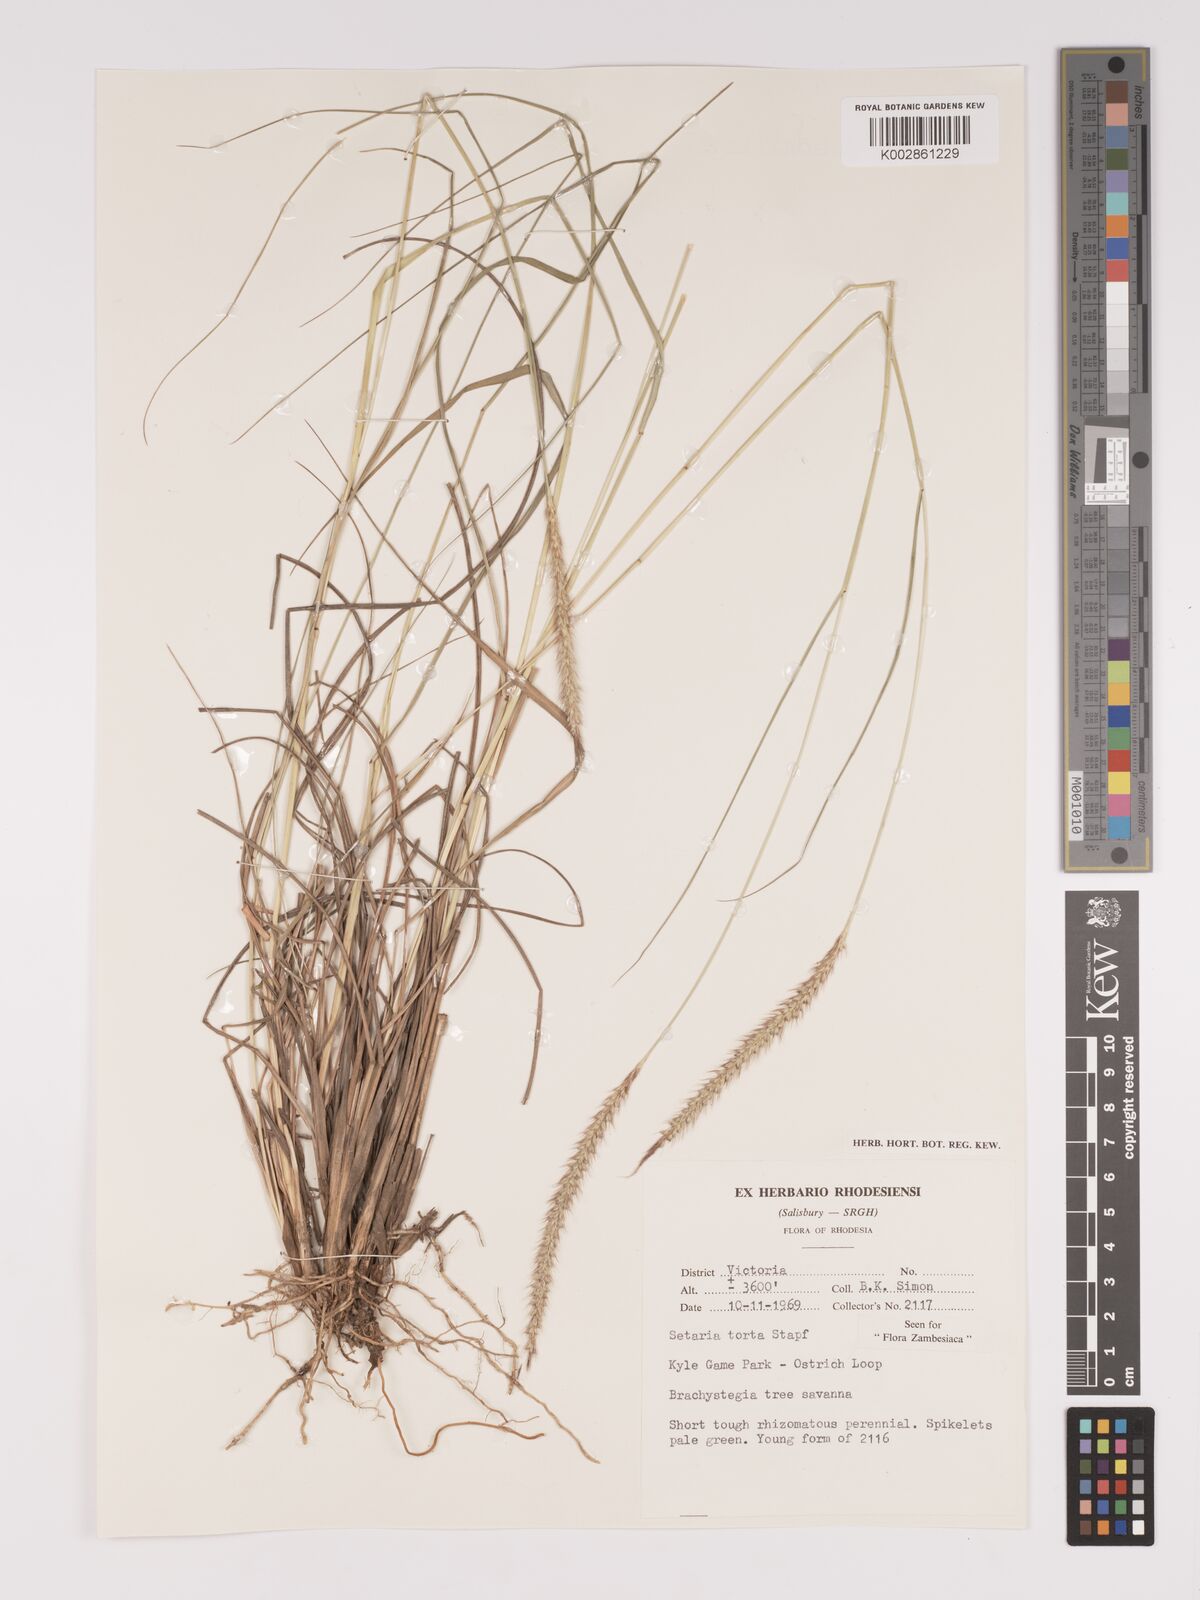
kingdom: Plantae
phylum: Tracheophyta
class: Liliopsida
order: Poales
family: Poaceae
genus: Setaria
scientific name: Setaria sphacelata
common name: African bristlegrass
